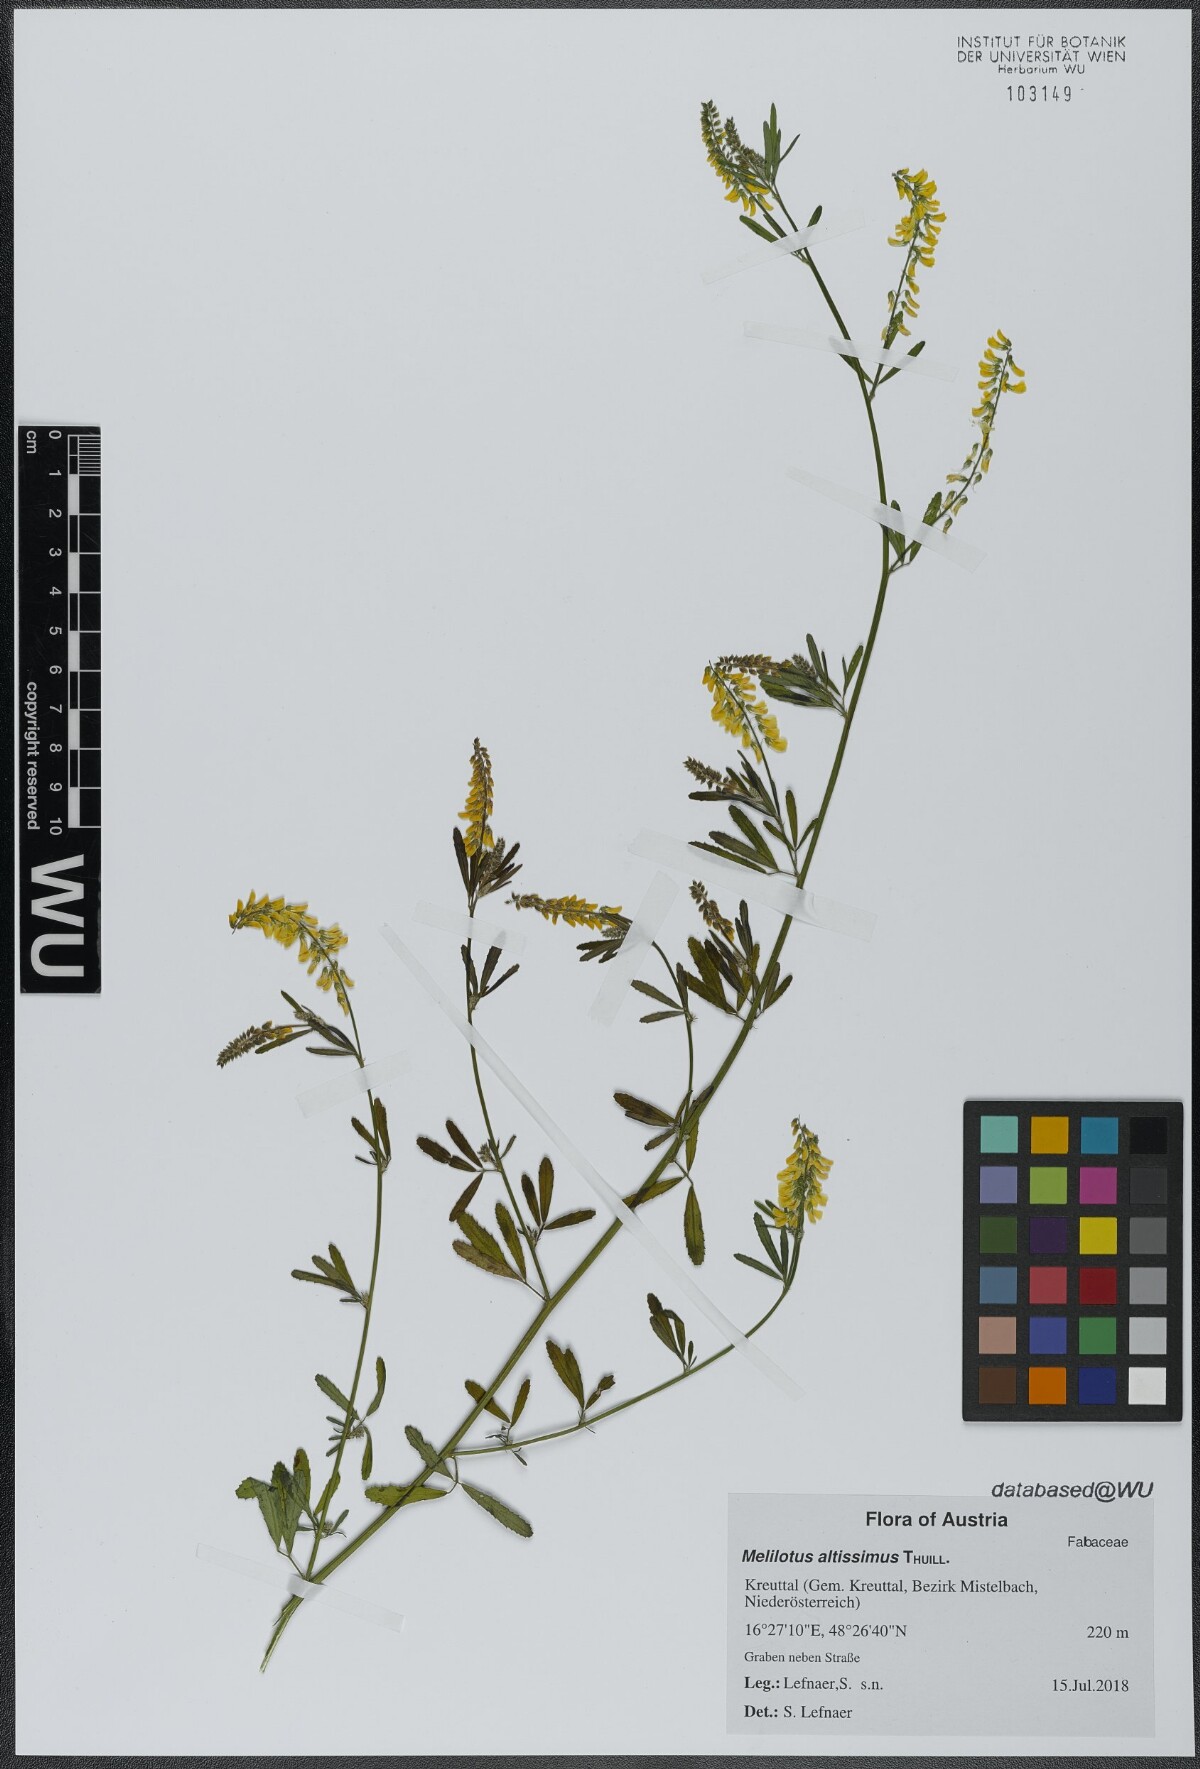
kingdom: Plantae
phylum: Tracheophyta
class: Magnoliopsida
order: Fabales
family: Fabaceae
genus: Melilotus
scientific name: Melilotus altissimus
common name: Tall melilot
